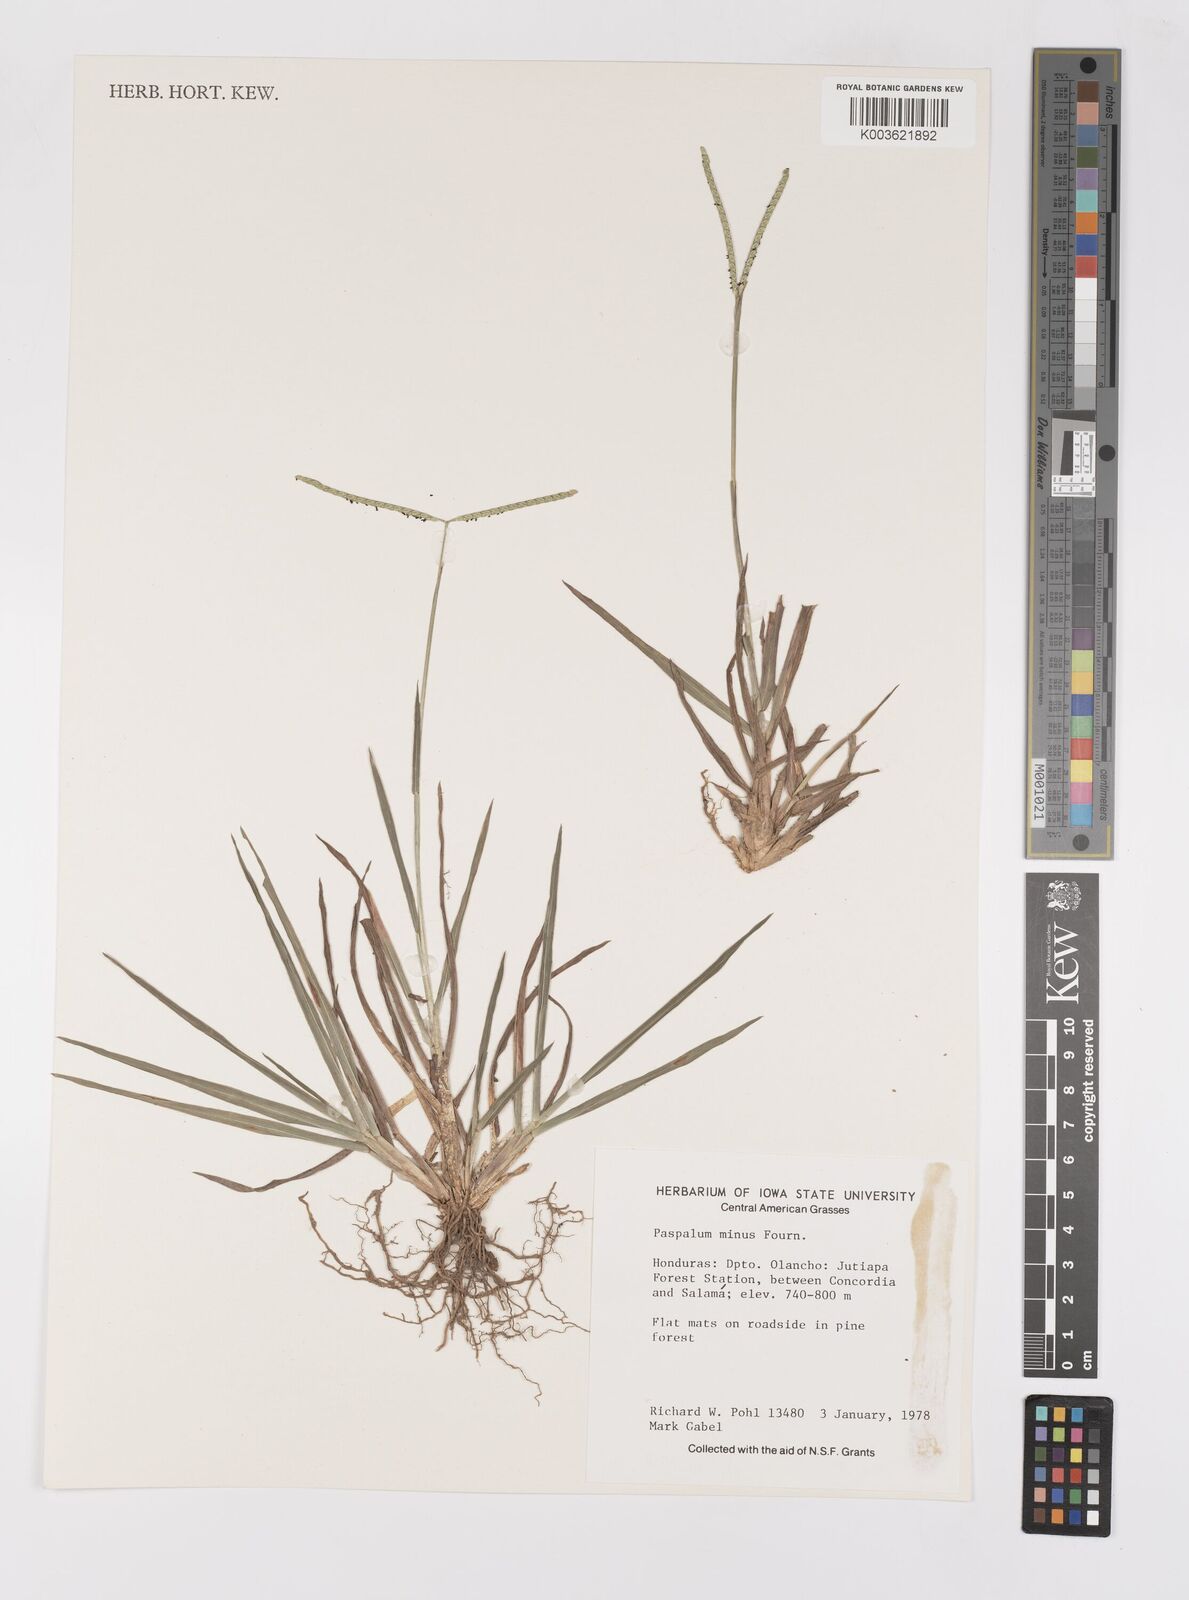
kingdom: Plantae
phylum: Tracheophyta
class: Liliopsida
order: Poales
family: Poaceae
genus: Paspalum
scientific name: Paspalum minus
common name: Matted paspalum
